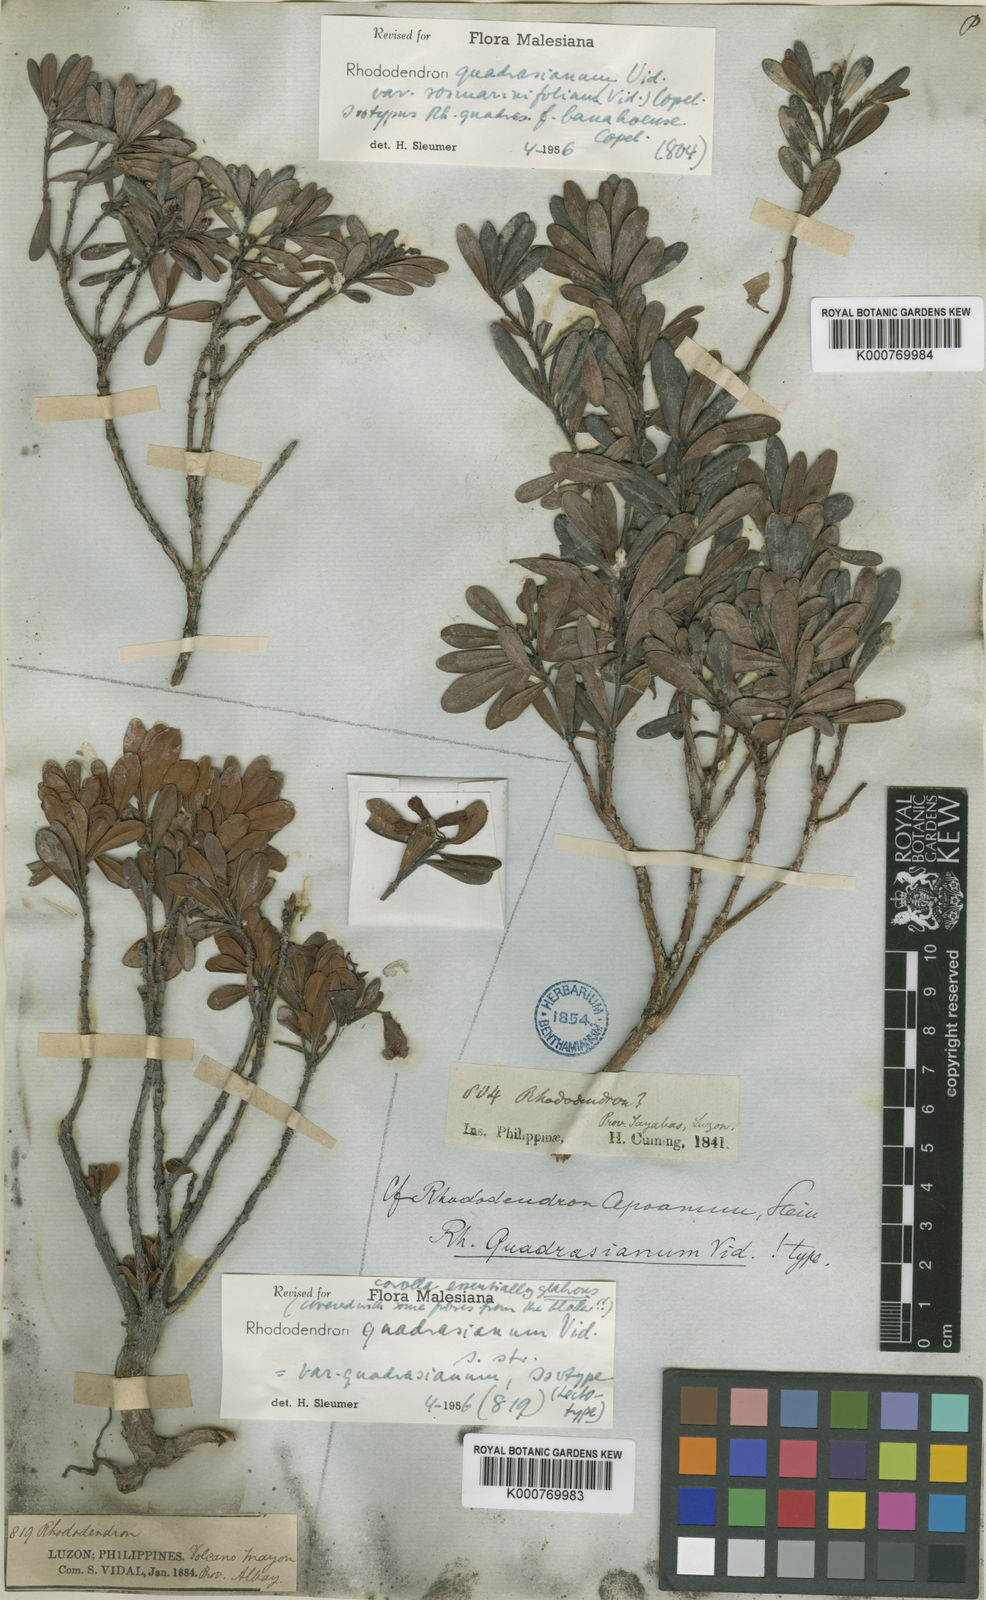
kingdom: Plantae
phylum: Tracheophyta
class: Magnoliopsida
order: Ericales
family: Ericaceae
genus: Rhododendron
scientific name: Rhododendron quadrasianum
